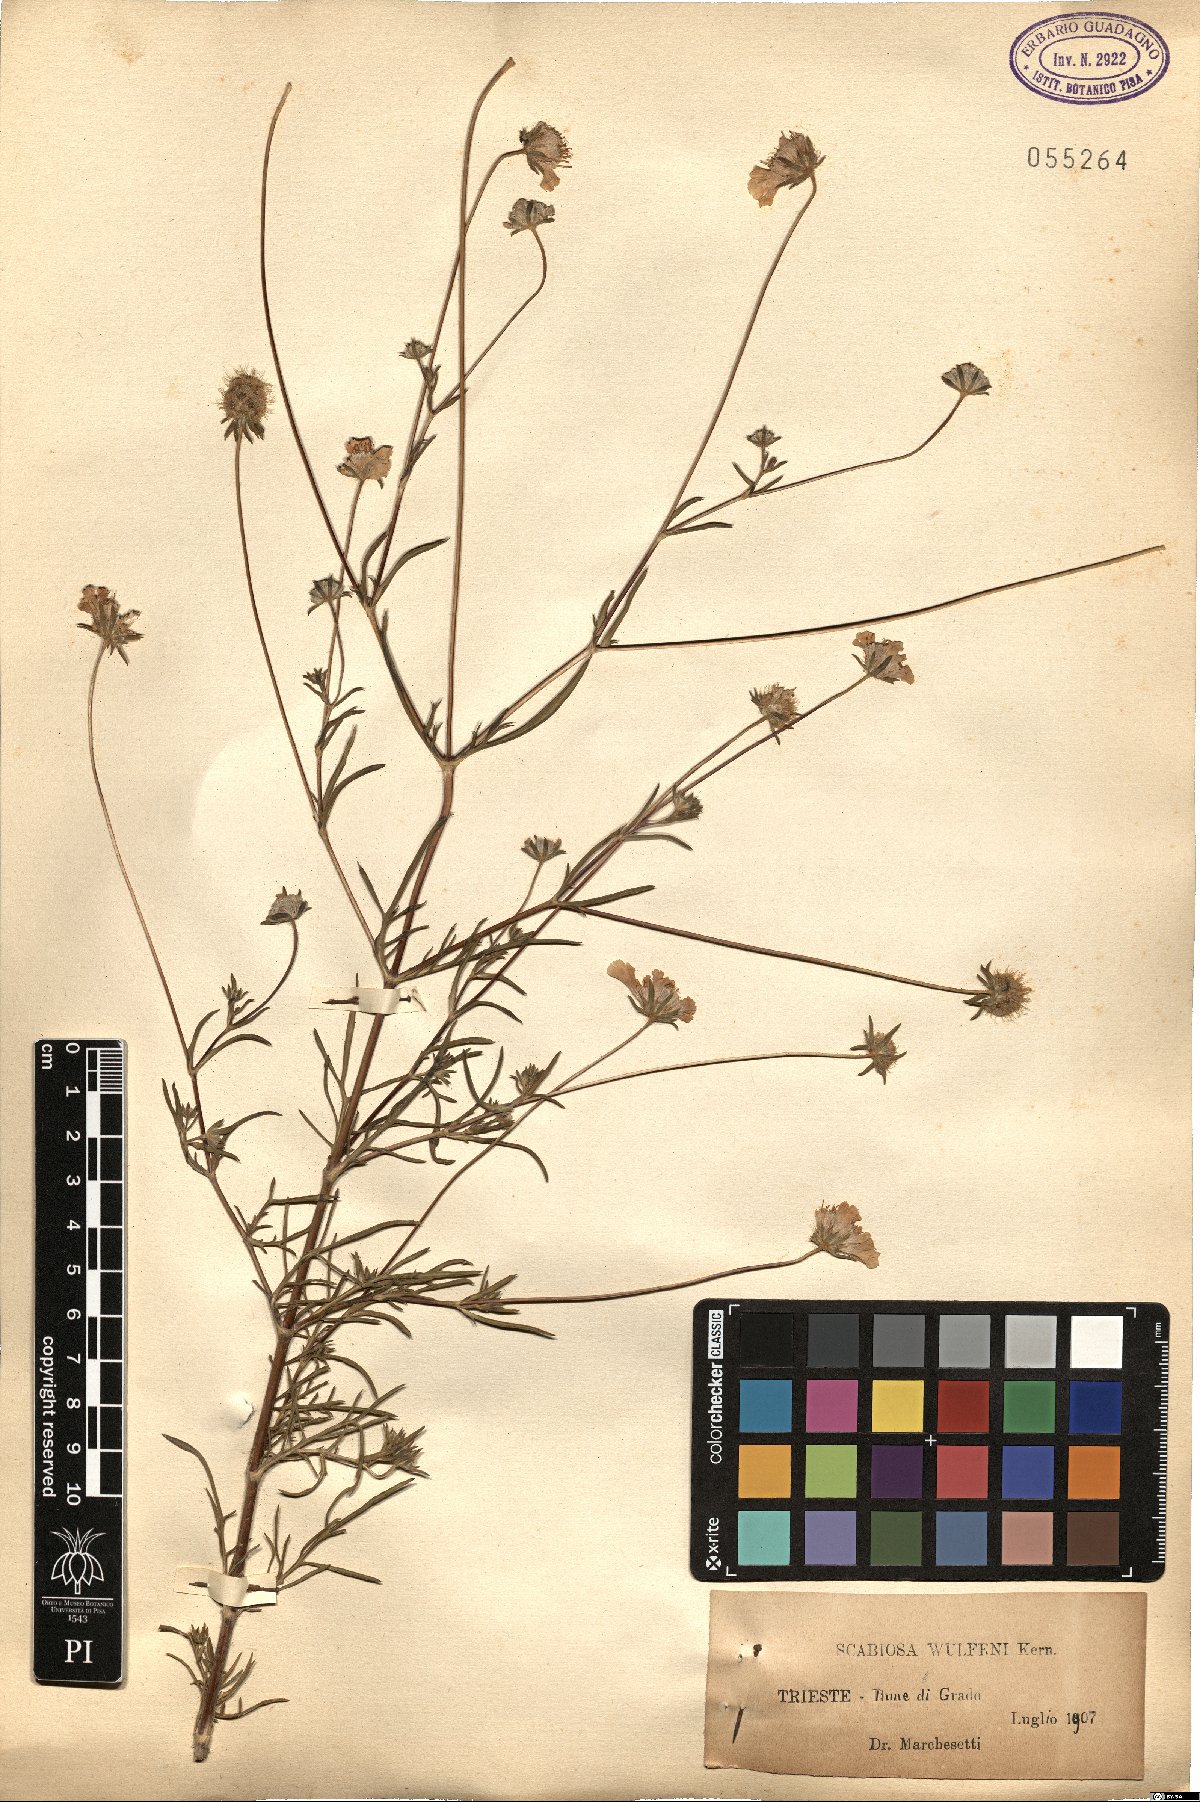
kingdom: Plantae
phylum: Tracheophyta
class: Magnoliopsida
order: Dipsacales
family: Caprifoliaceae
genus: Lomelosia
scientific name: Lomelosia argentea
